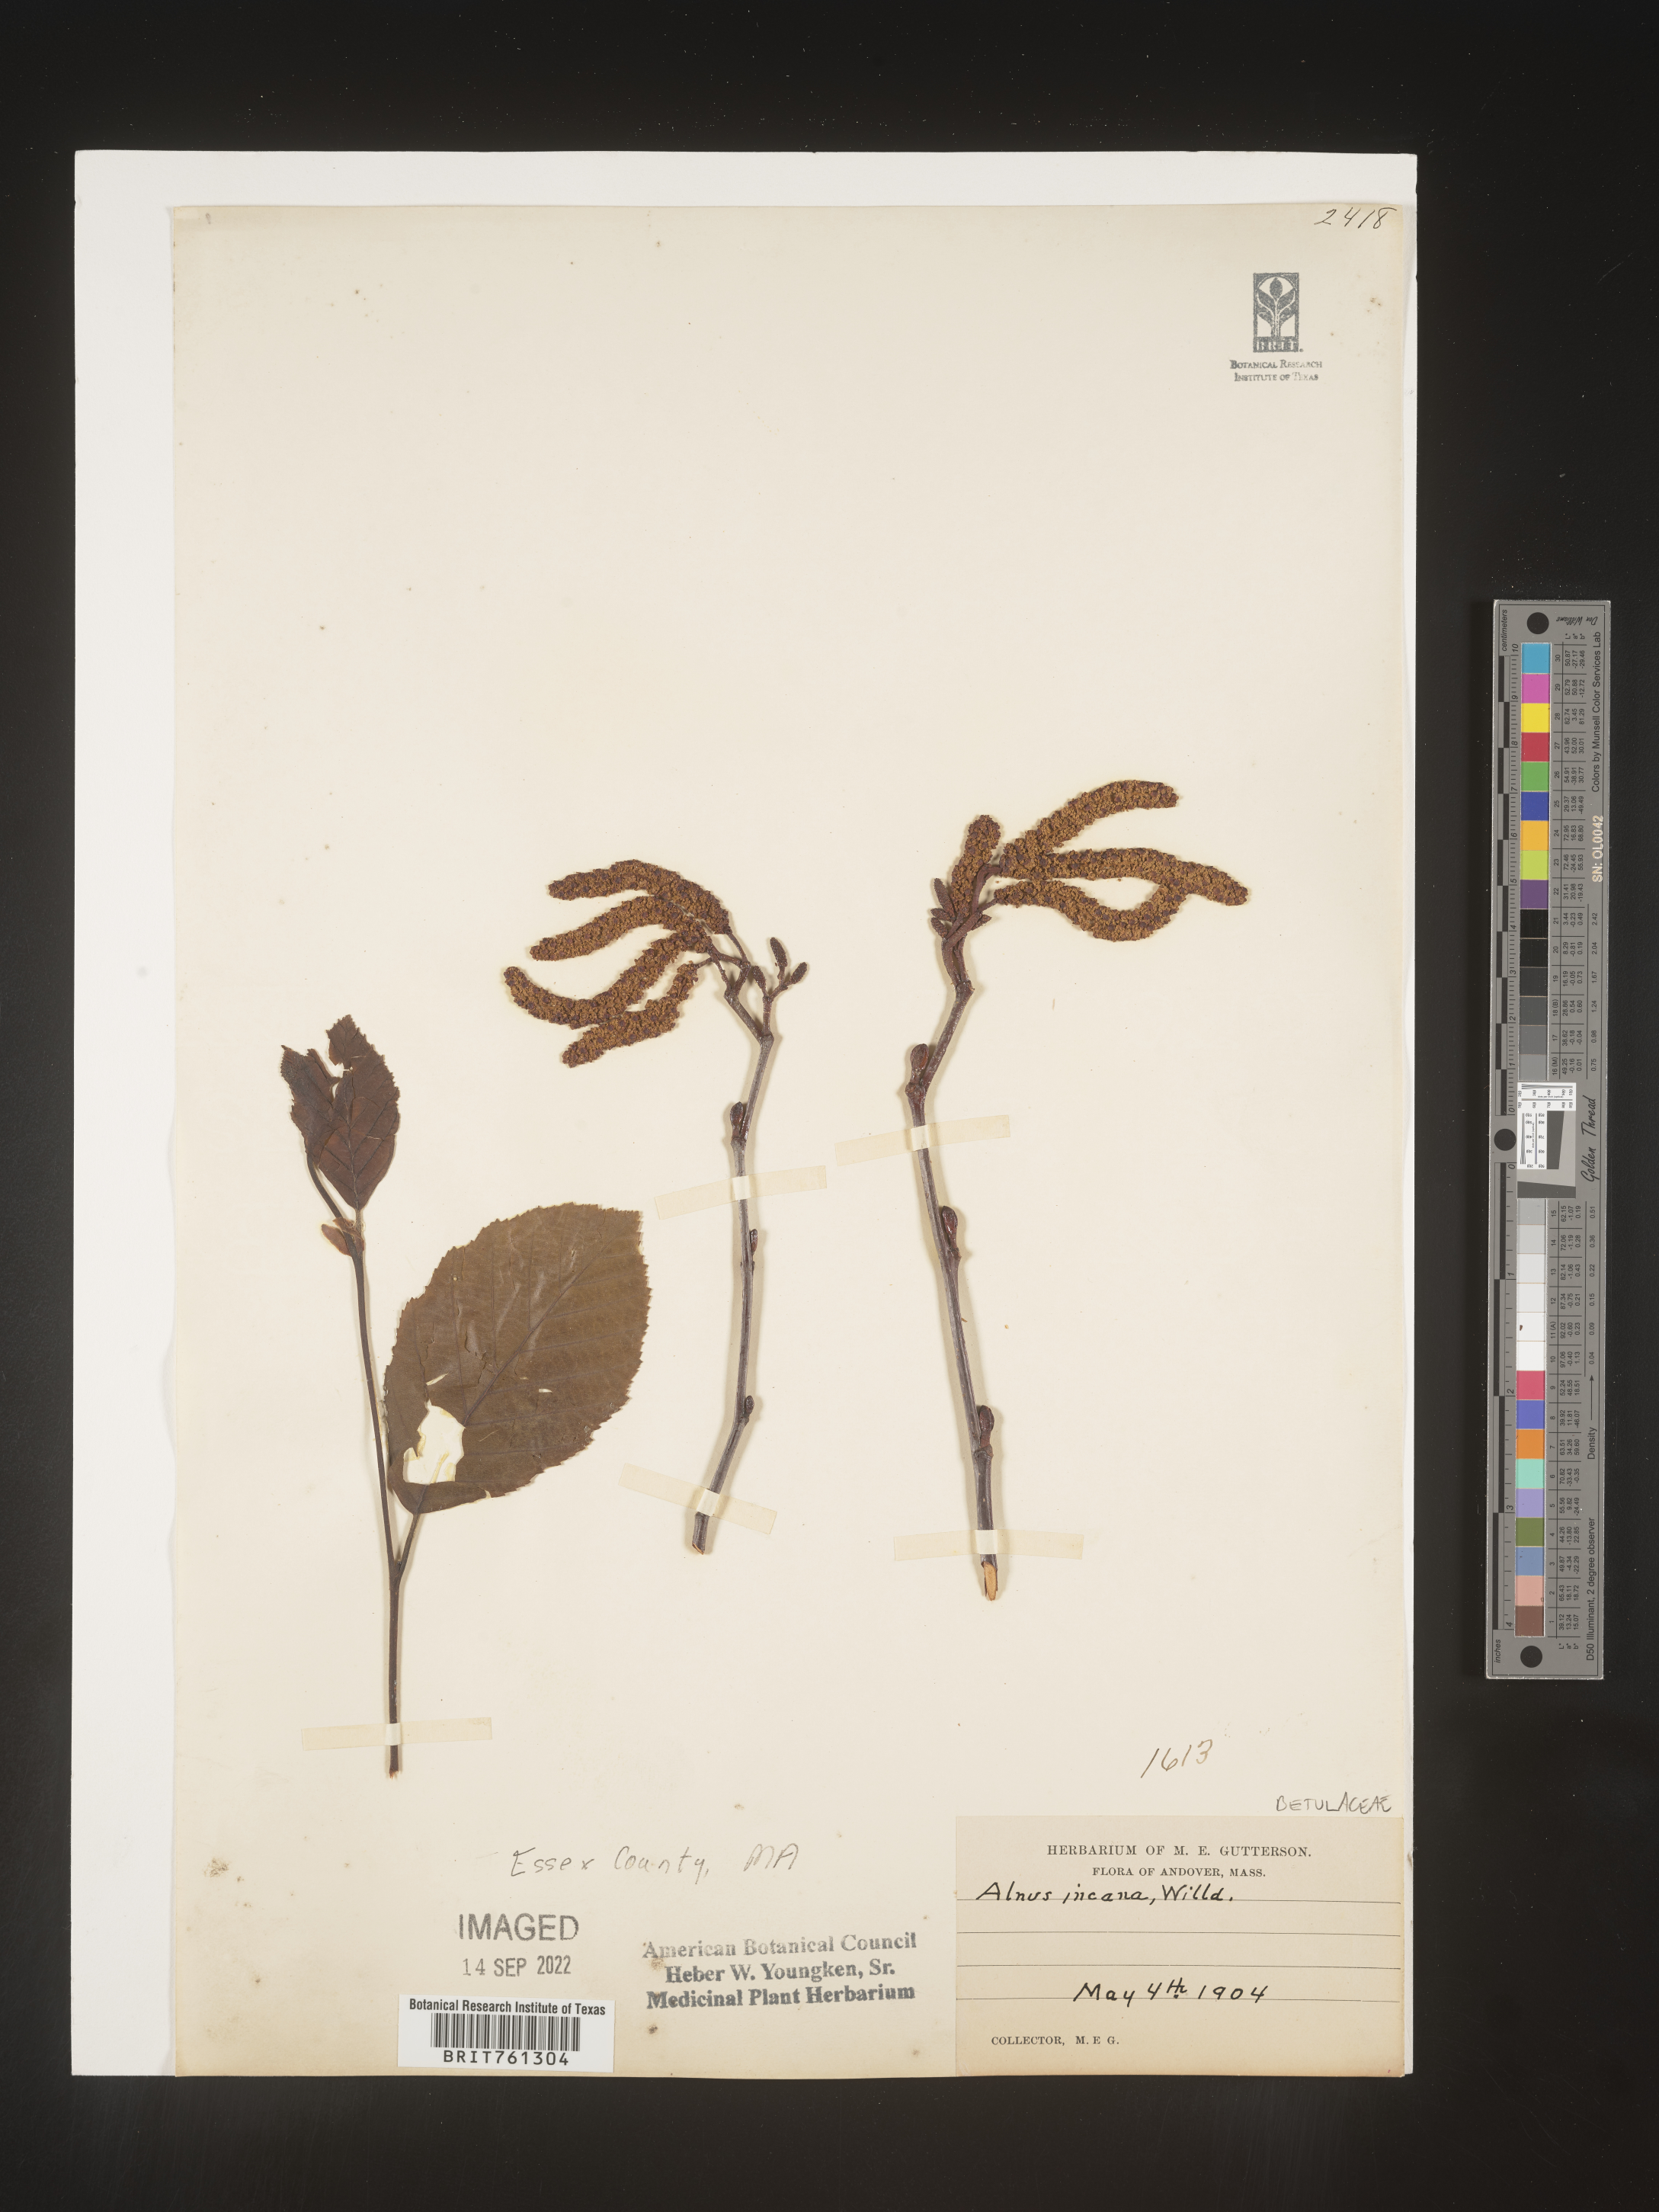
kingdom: Plantae
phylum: Tracheophyta
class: Magnoliopsida
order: Fagales
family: Betulaceae
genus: Alnus
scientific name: Alnus incana
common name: Grey alder
